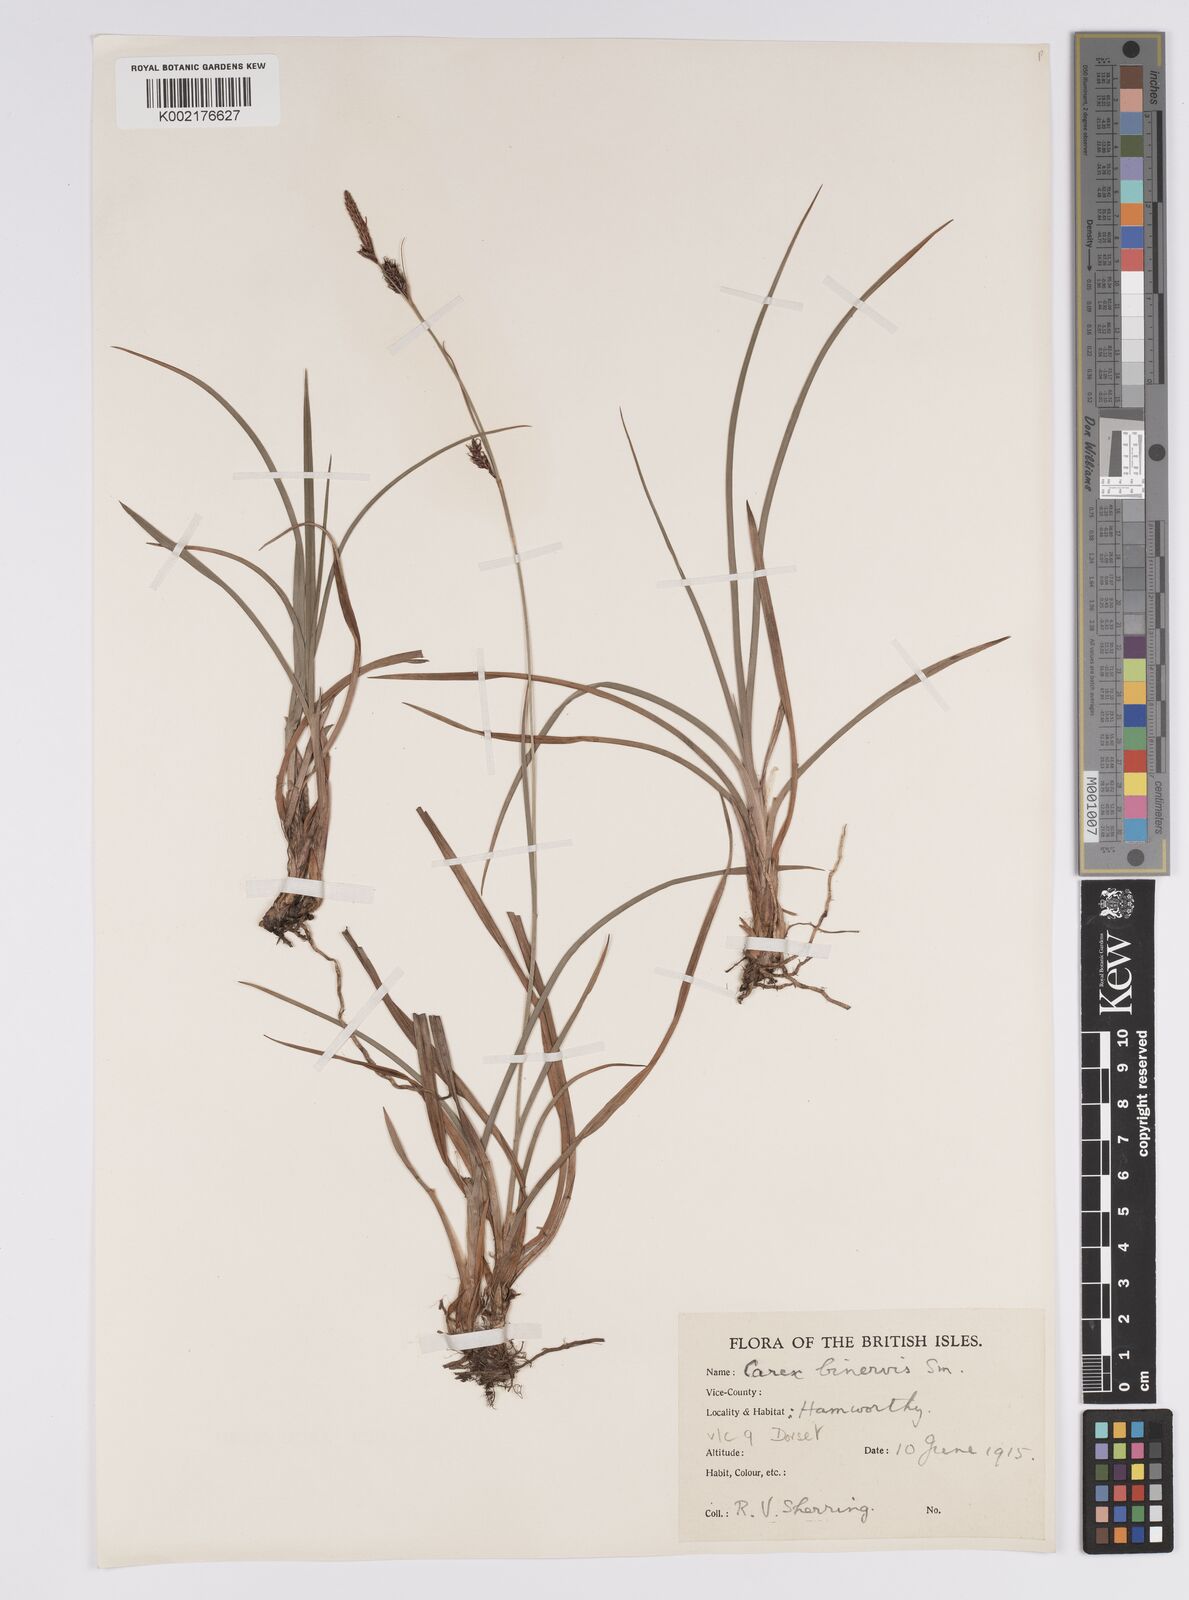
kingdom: Plantae
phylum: Tracheophyta
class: Liliopsida
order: Poales
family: Cyperaceae
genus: Carex
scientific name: Carex binervis
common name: Green-ribbed sedge
